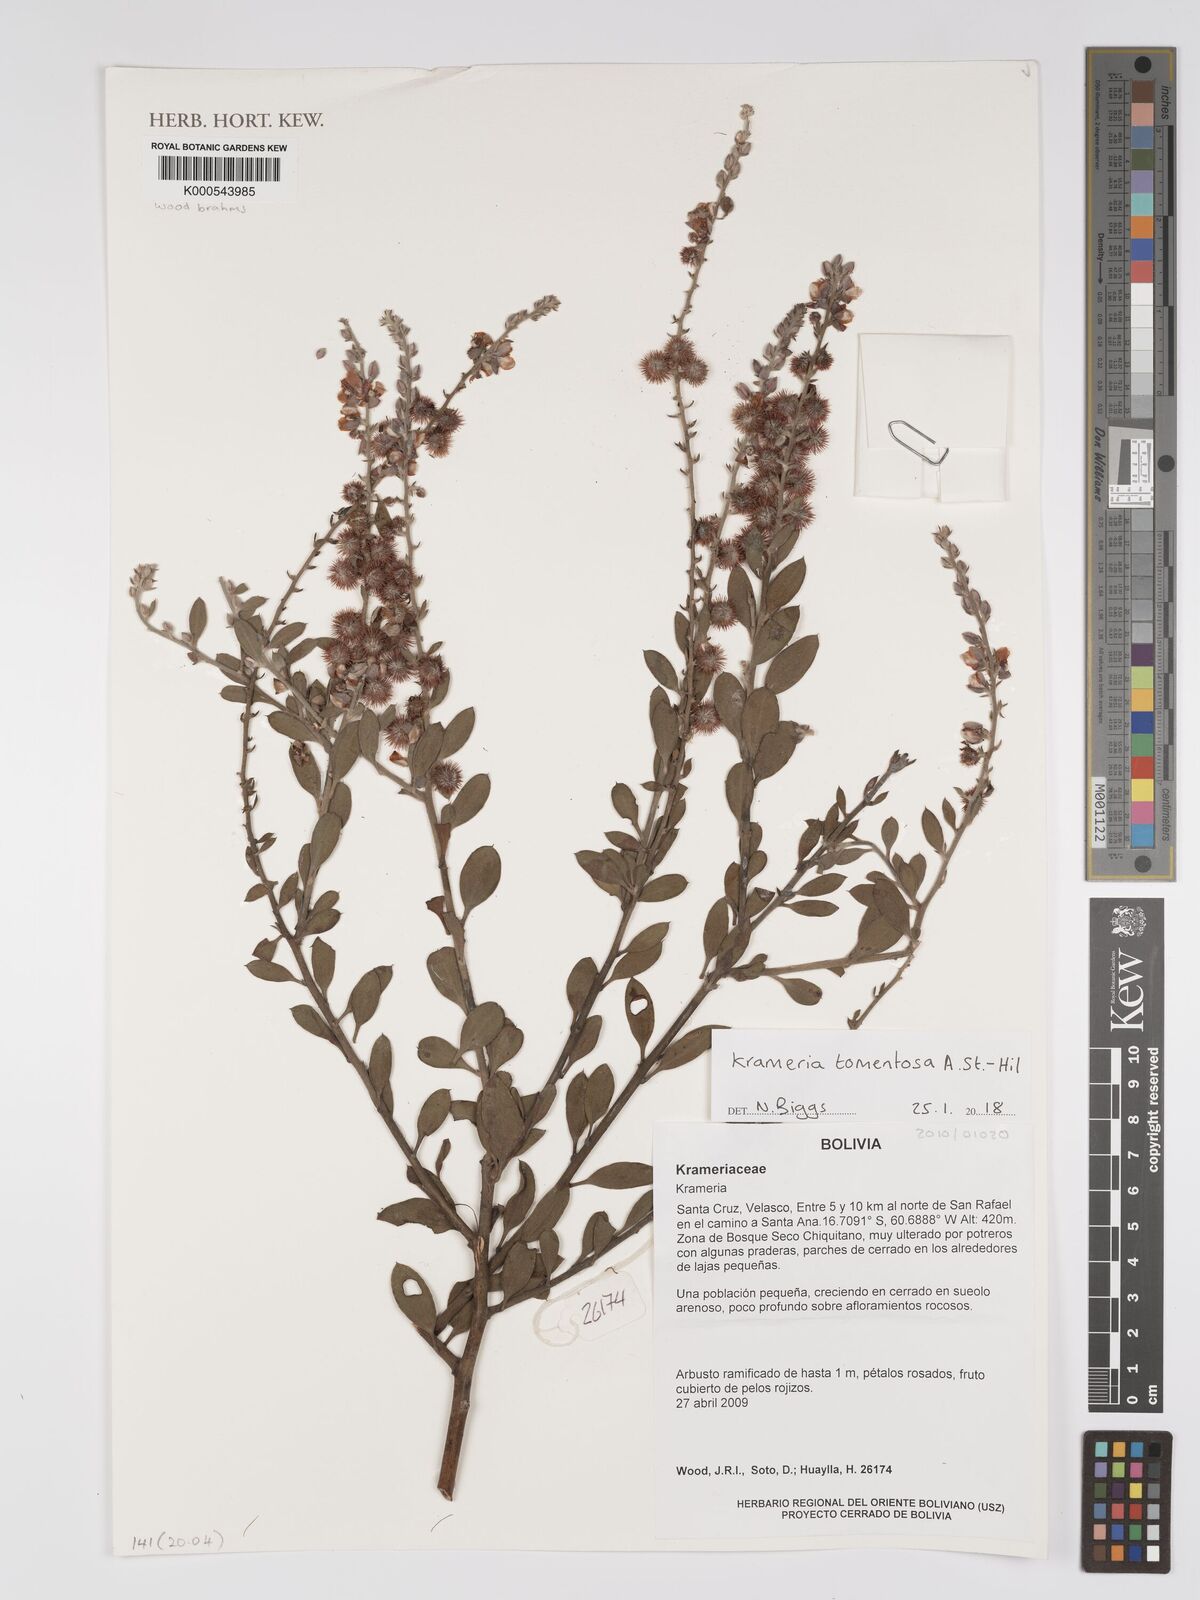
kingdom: Plantae
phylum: Tracheophyta
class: Magnoliopsida
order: Zygophyllales
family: Krameriaceae
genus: Krameria
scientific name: Krameria tomentosa
